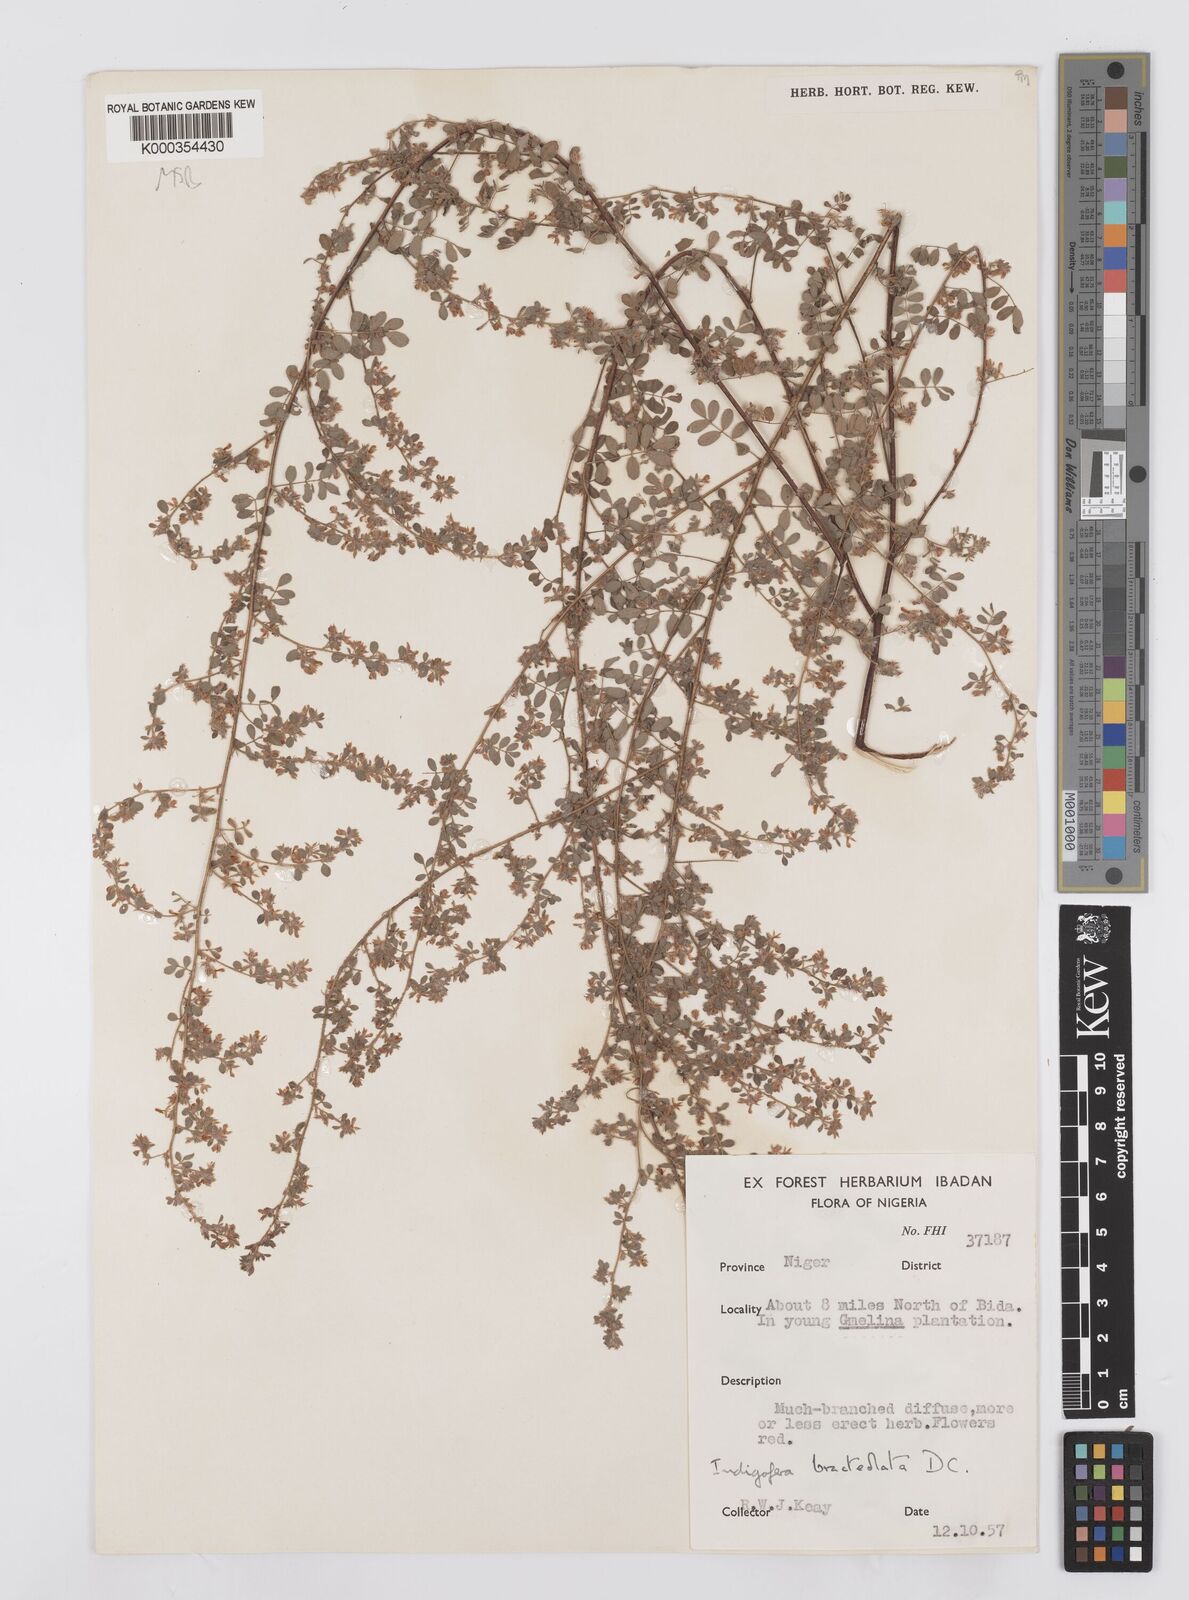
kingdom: Plantae
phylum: Tracheophyta
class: Magnoliopsida
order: Fabales
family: Fabaceae
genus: Indigofera
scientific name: Indigofera bracteolata
